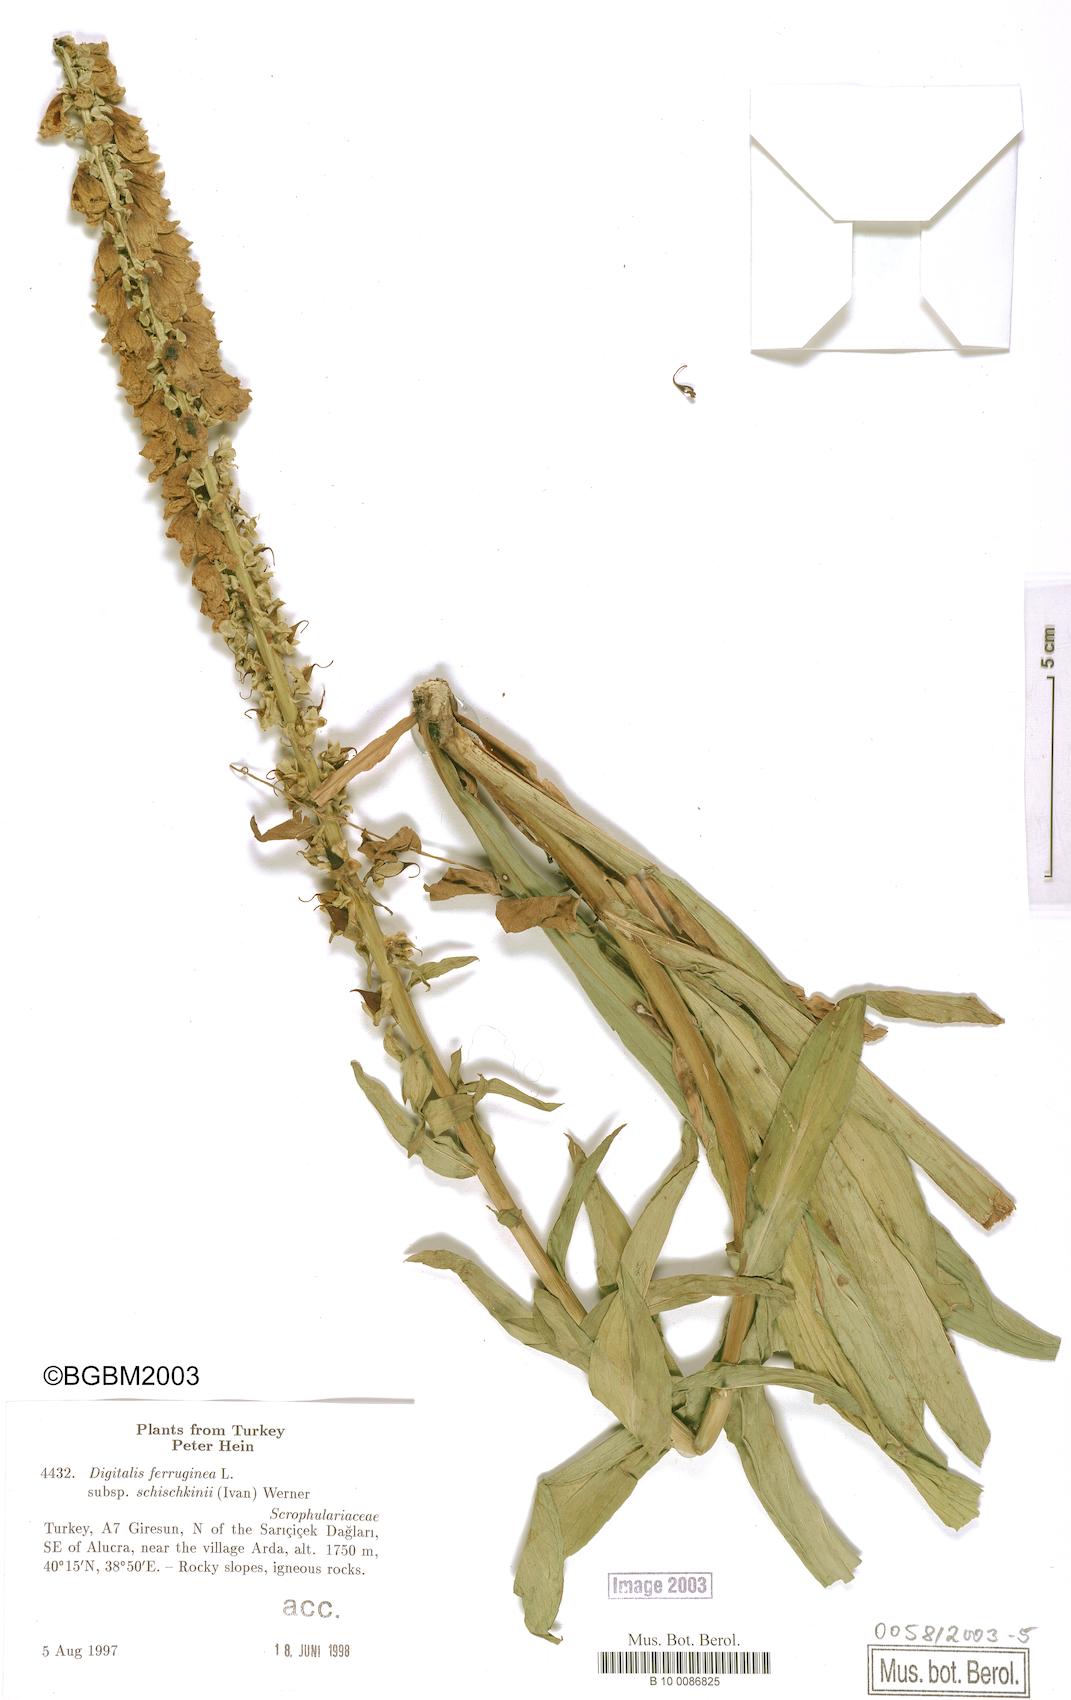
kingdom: Plantae
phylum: Tracheophyta
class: Magnoliopsida
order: Lamiales
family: Plantaginaceae
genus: Digitalis
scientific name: Digitalis ferruginea
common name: Rusty foxglove
